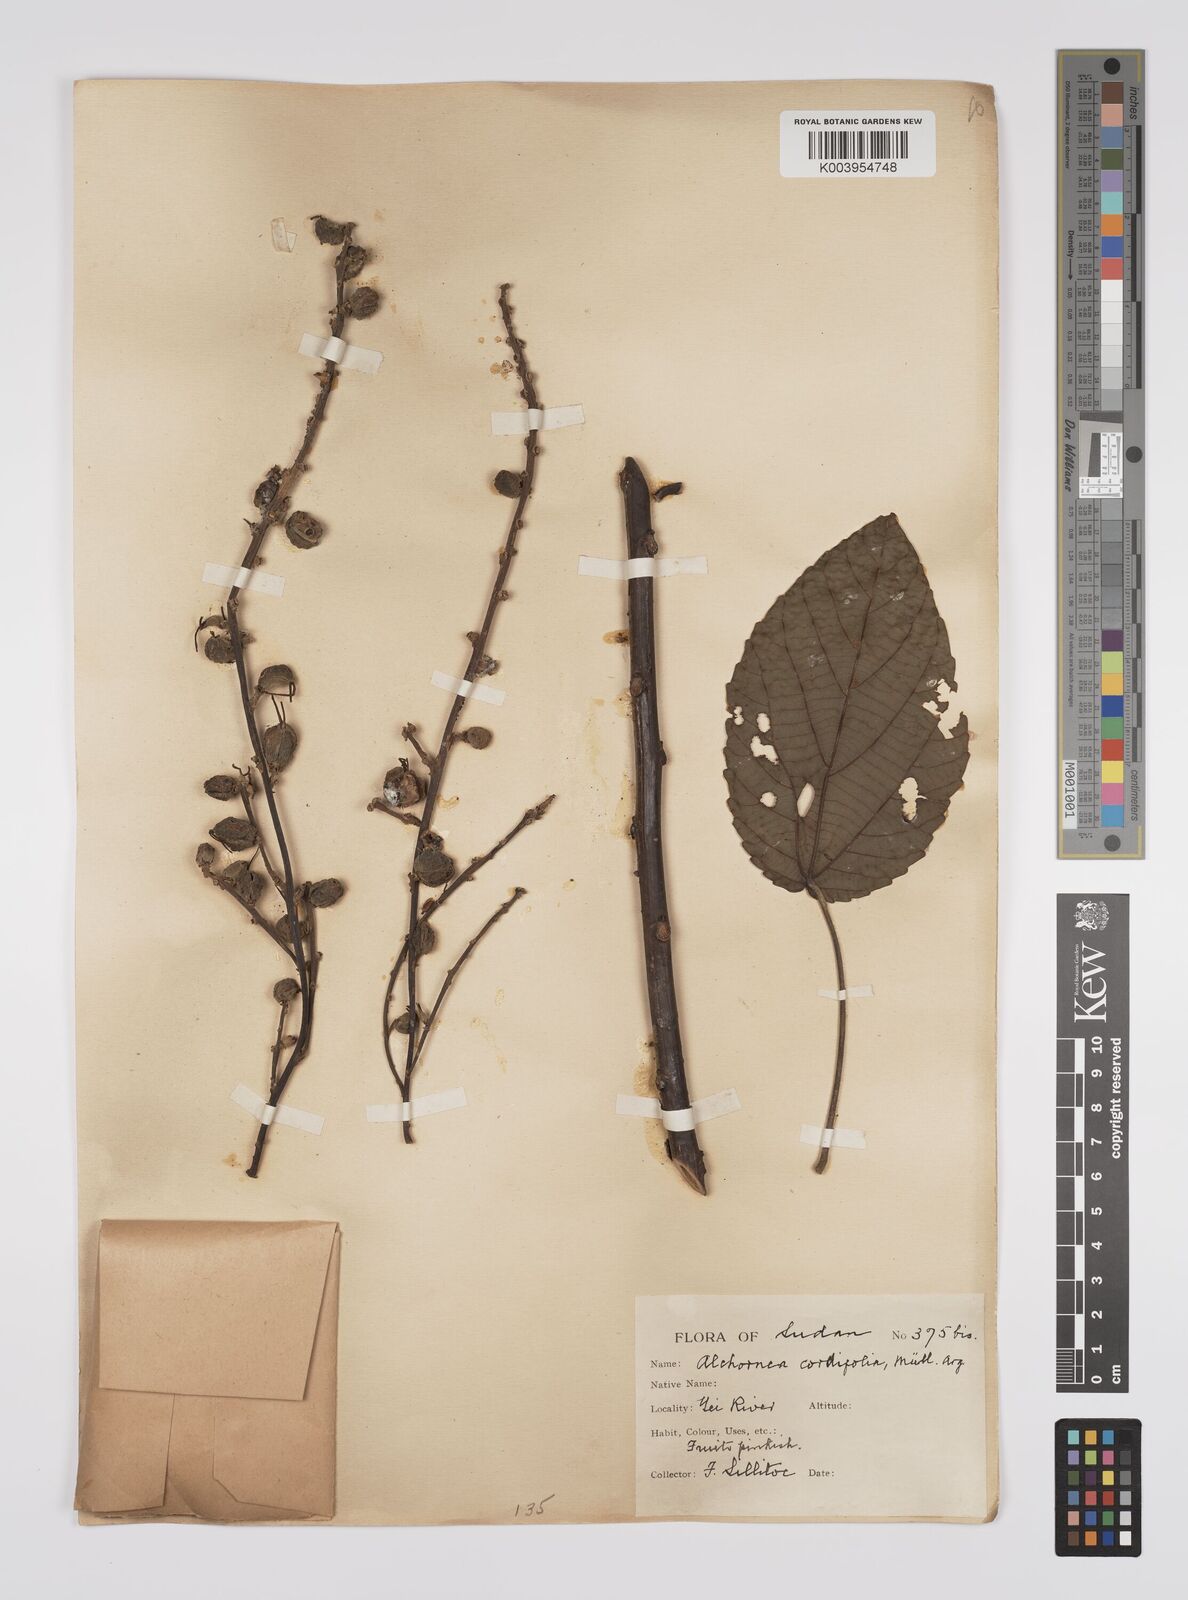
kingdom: Plantae
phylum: Tracheophyta
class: Magnoliopsida
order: Malpighiales
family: Euphorbiaceae
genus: Alchornea
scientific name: Alchornea cordifolia
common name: Christmasbush
